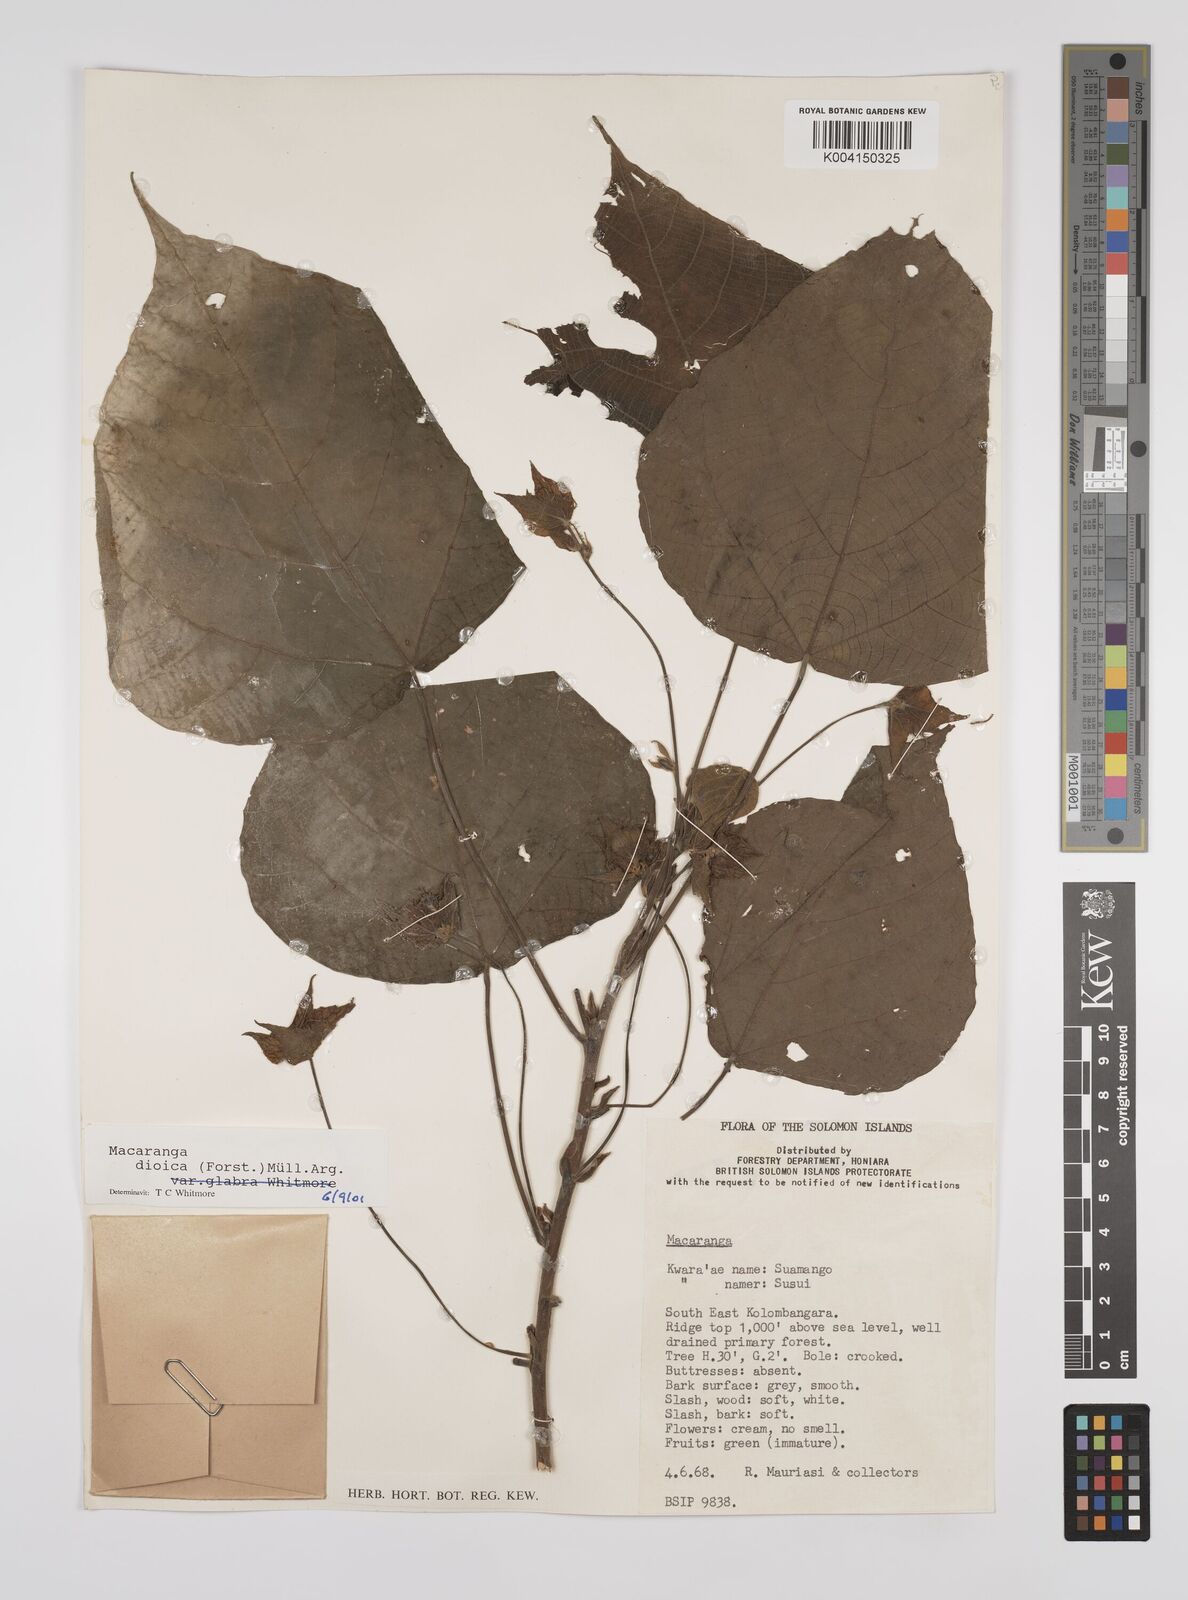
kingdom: Plantae
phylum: Tracheophyta
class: Magnoliopsida
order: Malpighiales
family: Euphorbiaceae
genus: Macaranga
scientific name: Macaranga dioica
